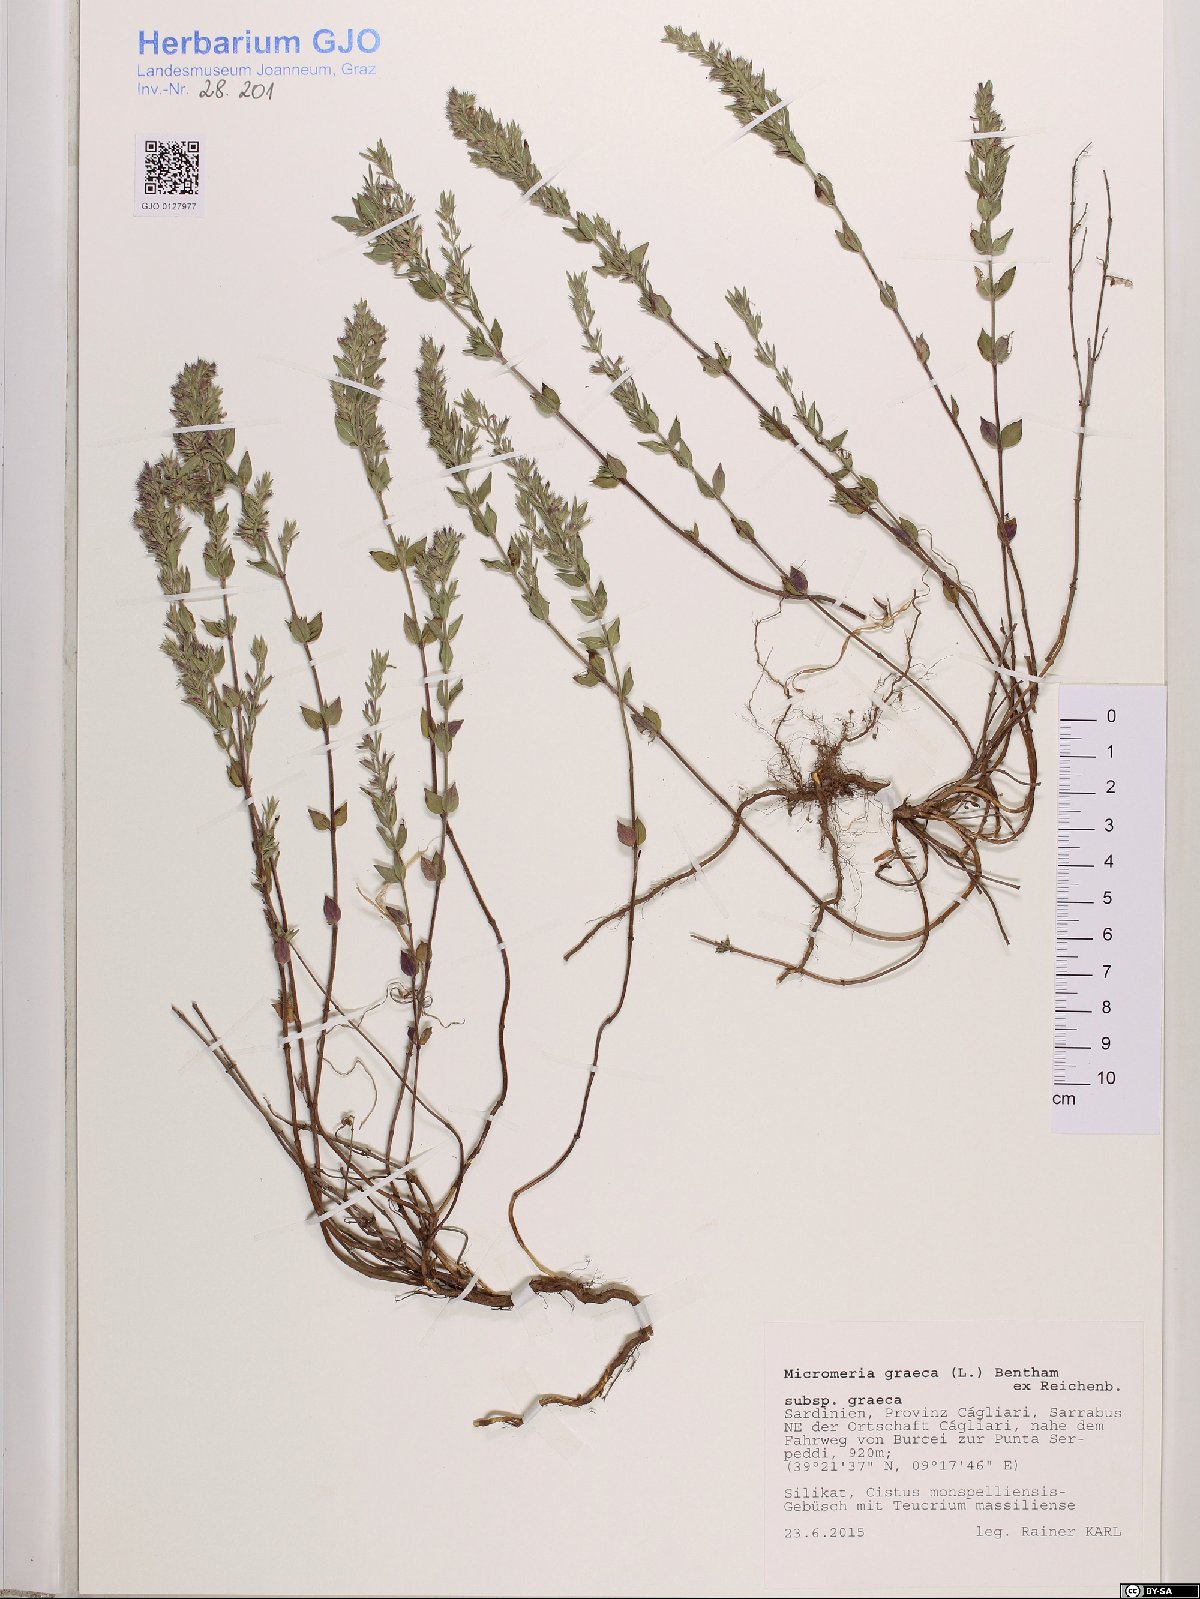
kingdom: Plantae
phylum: Tracheophyta
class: Magnoliopsida
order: Lamiales
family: Lamiaceae
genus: Micromeria
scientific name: Micromeria graeca
